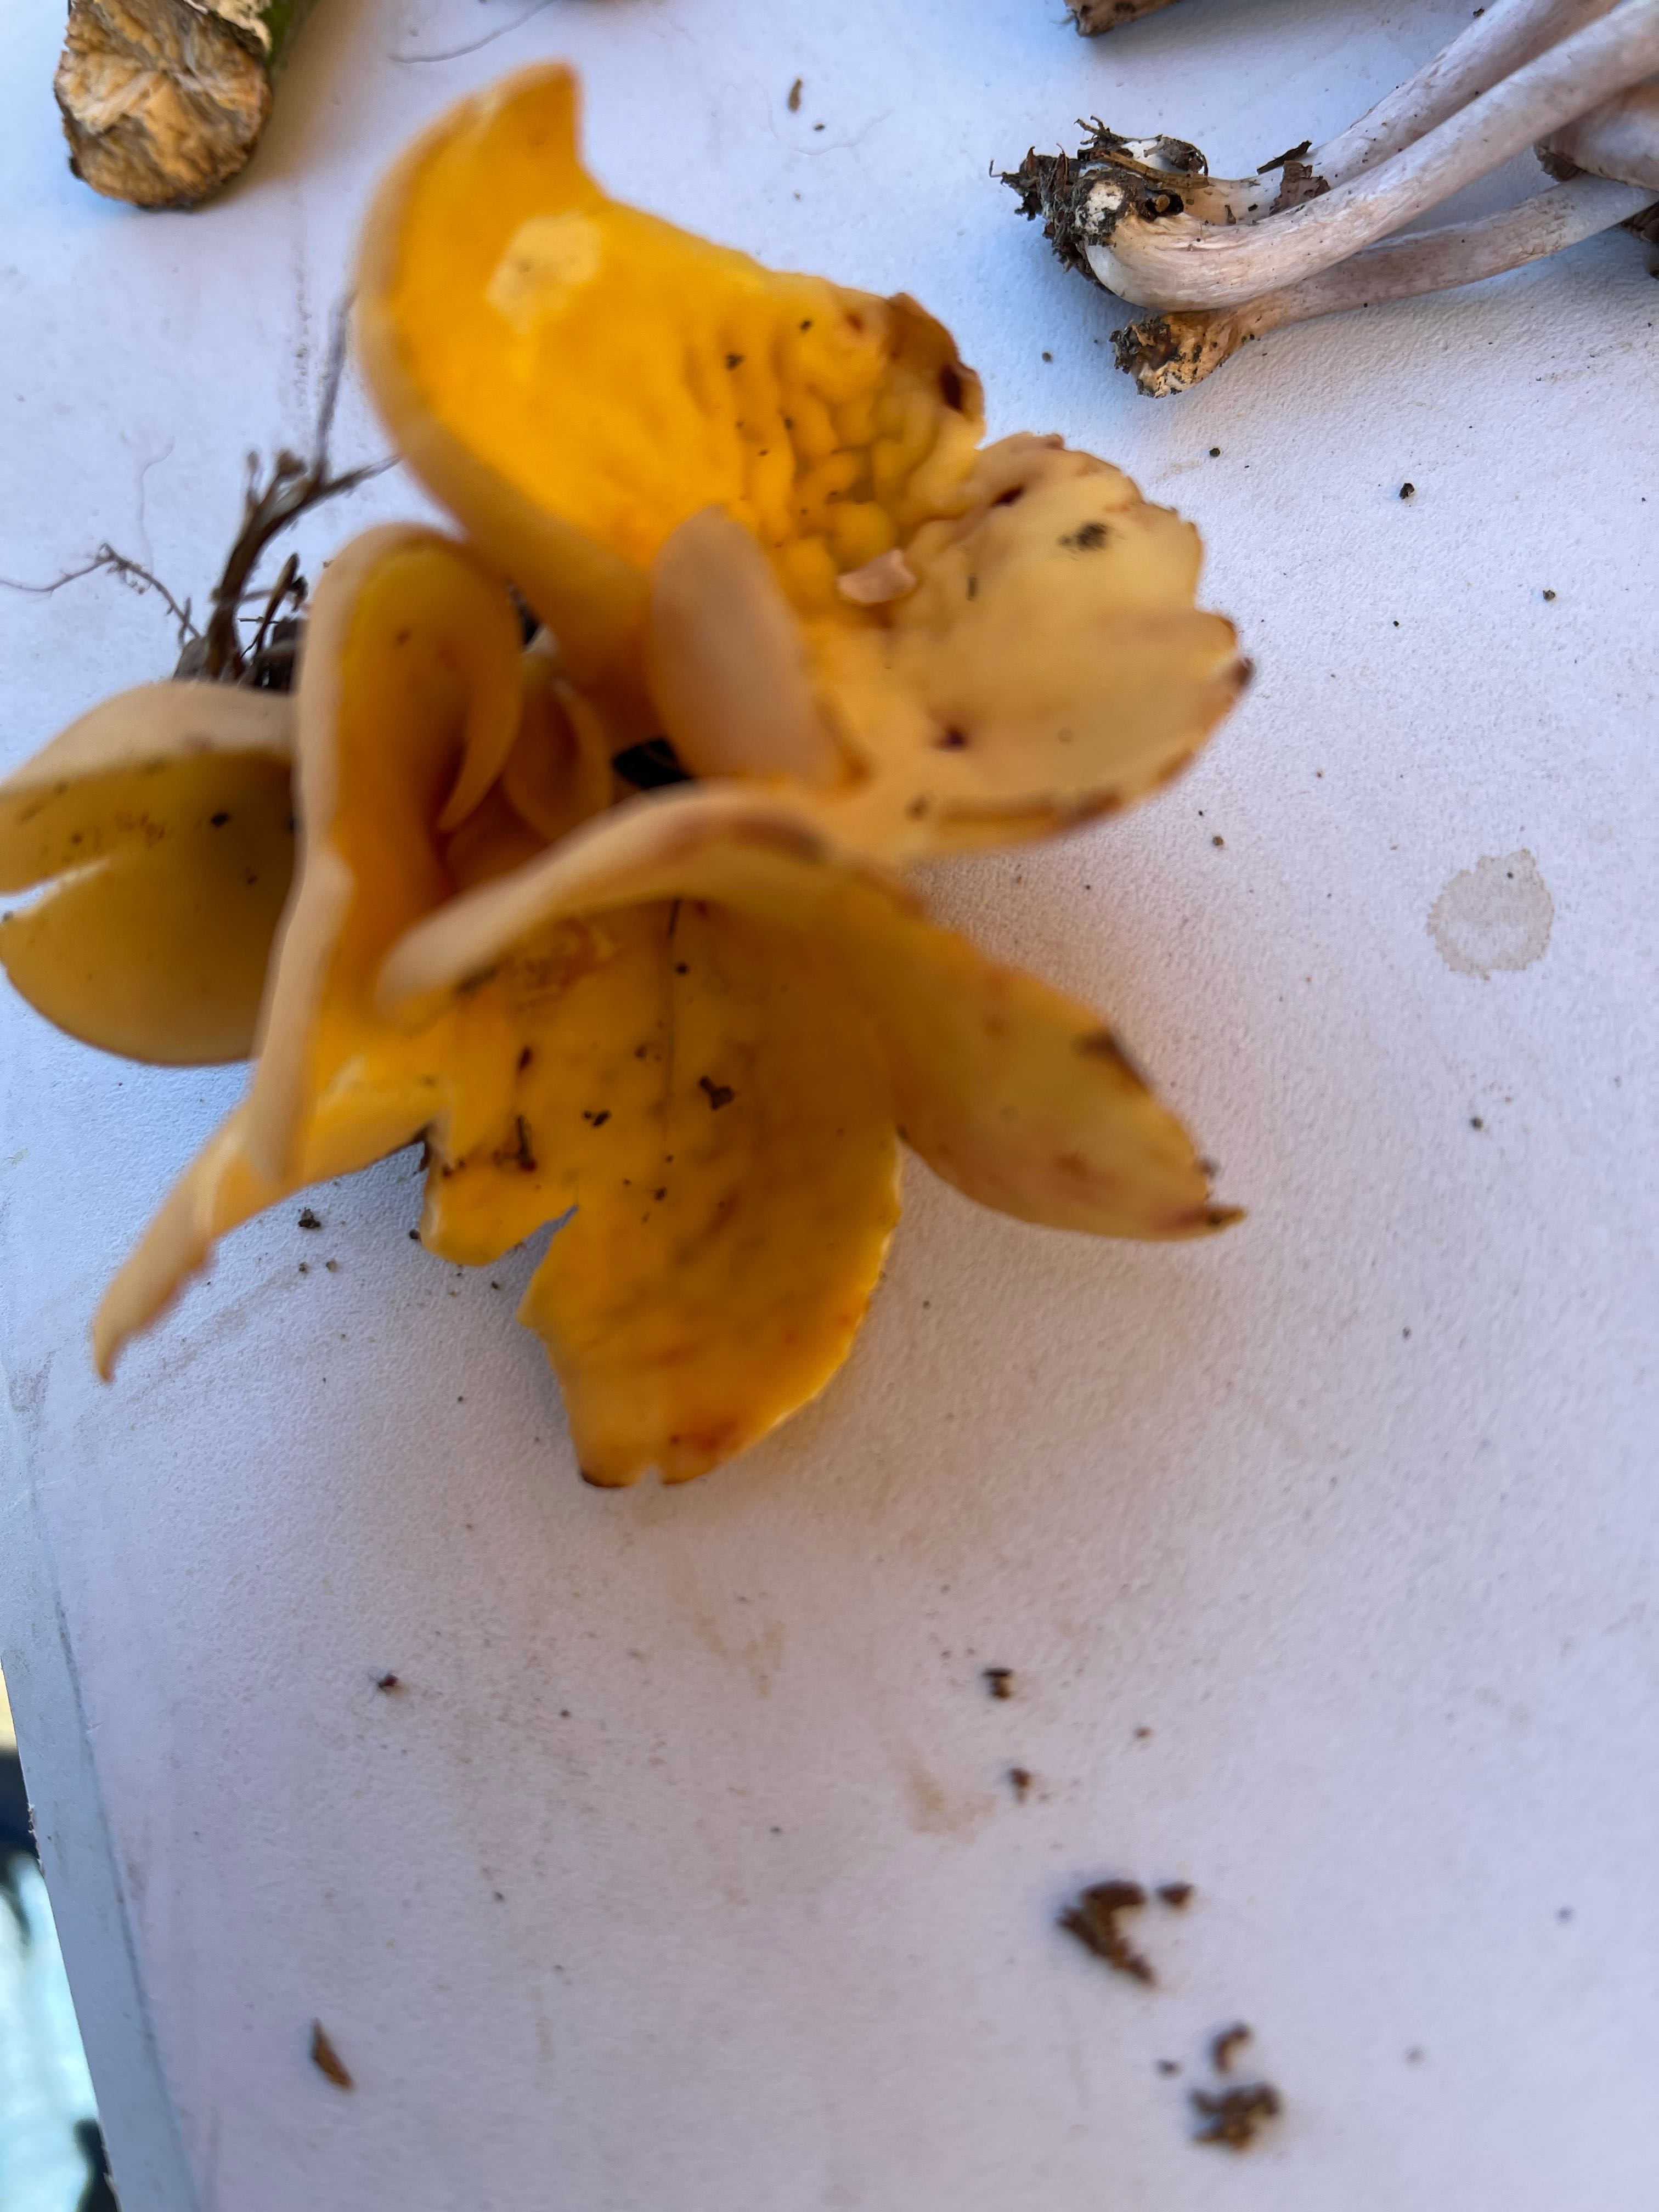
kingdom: Fungi
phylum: Ascomycota
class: Pezizomycetes
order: Pezizales
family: Otideaceae
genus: Otidea
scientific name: Otidea onotica
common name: æsel-ørebæger
